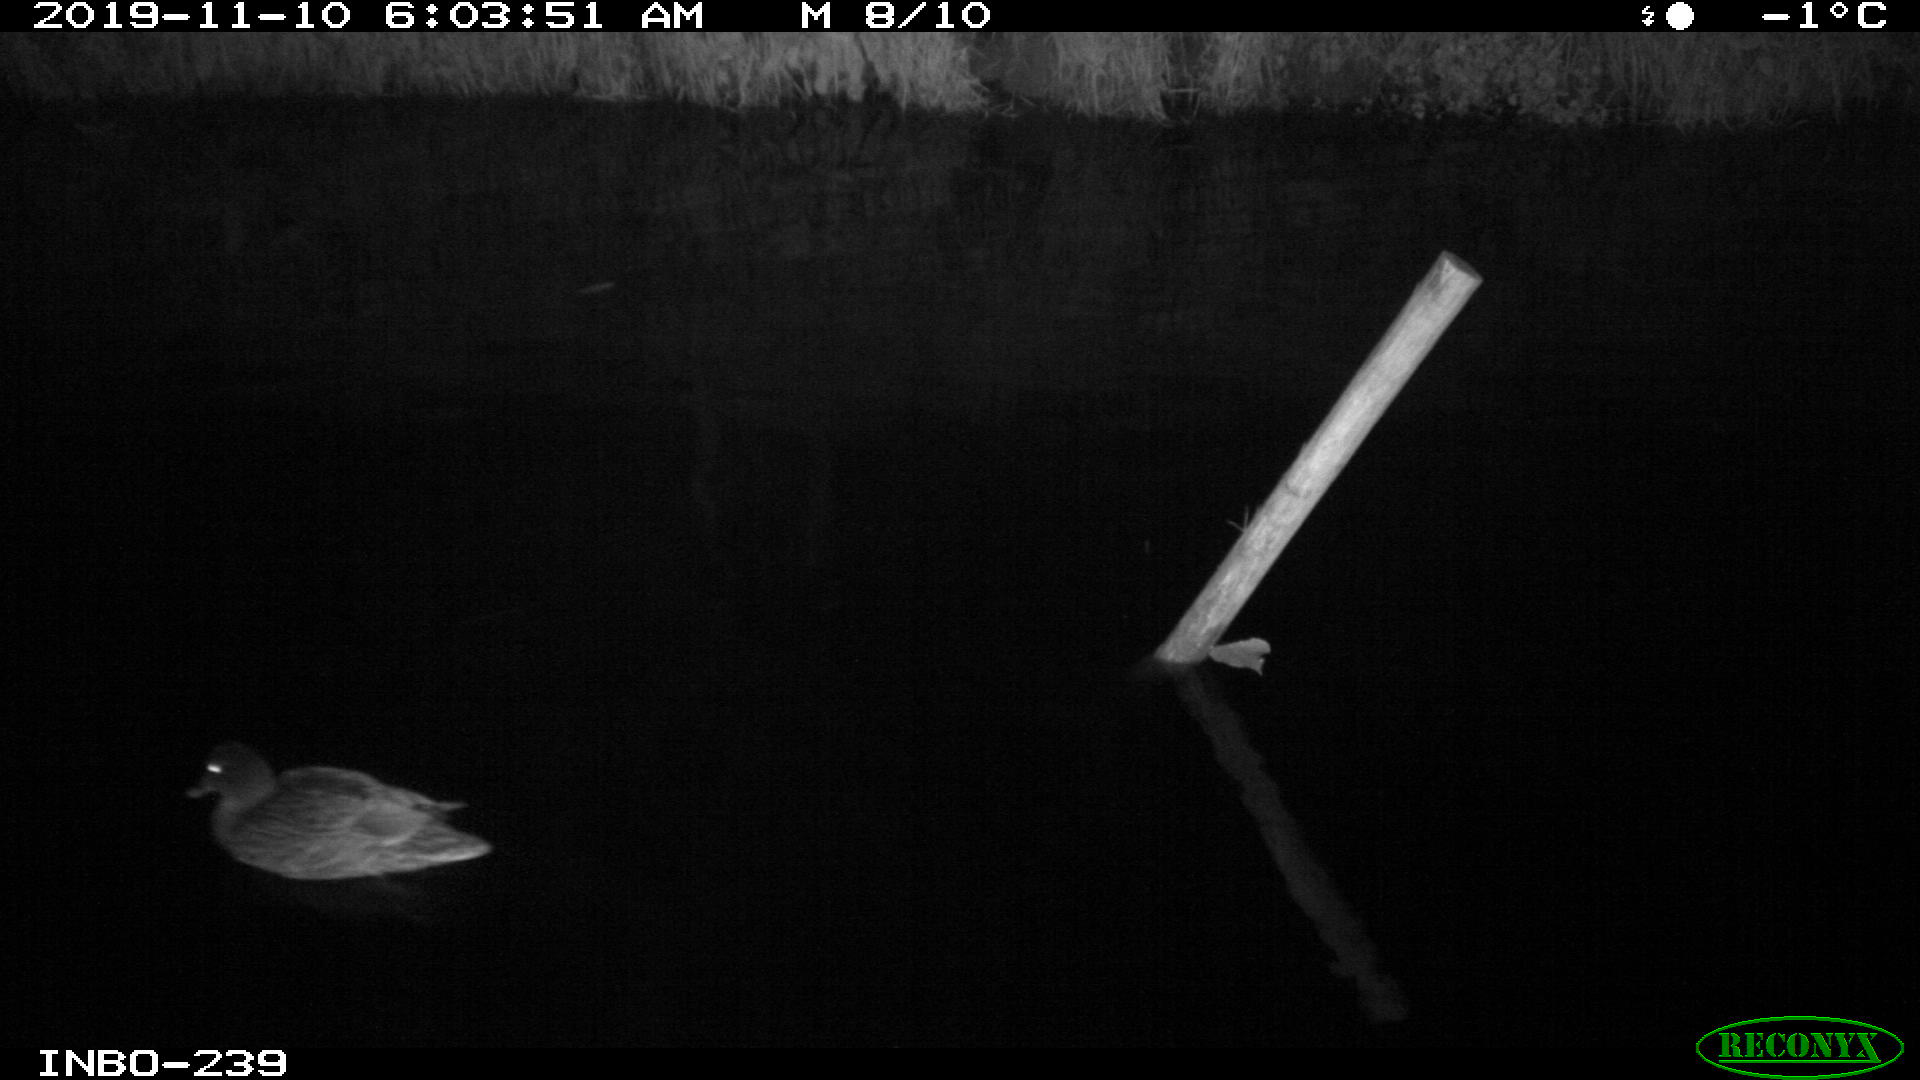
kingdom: Animalia
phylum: Chordata
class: Aves
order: Anseriformes
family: Anatidae
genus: Anas
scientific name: Anas platyrhynchos
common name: Mallard
